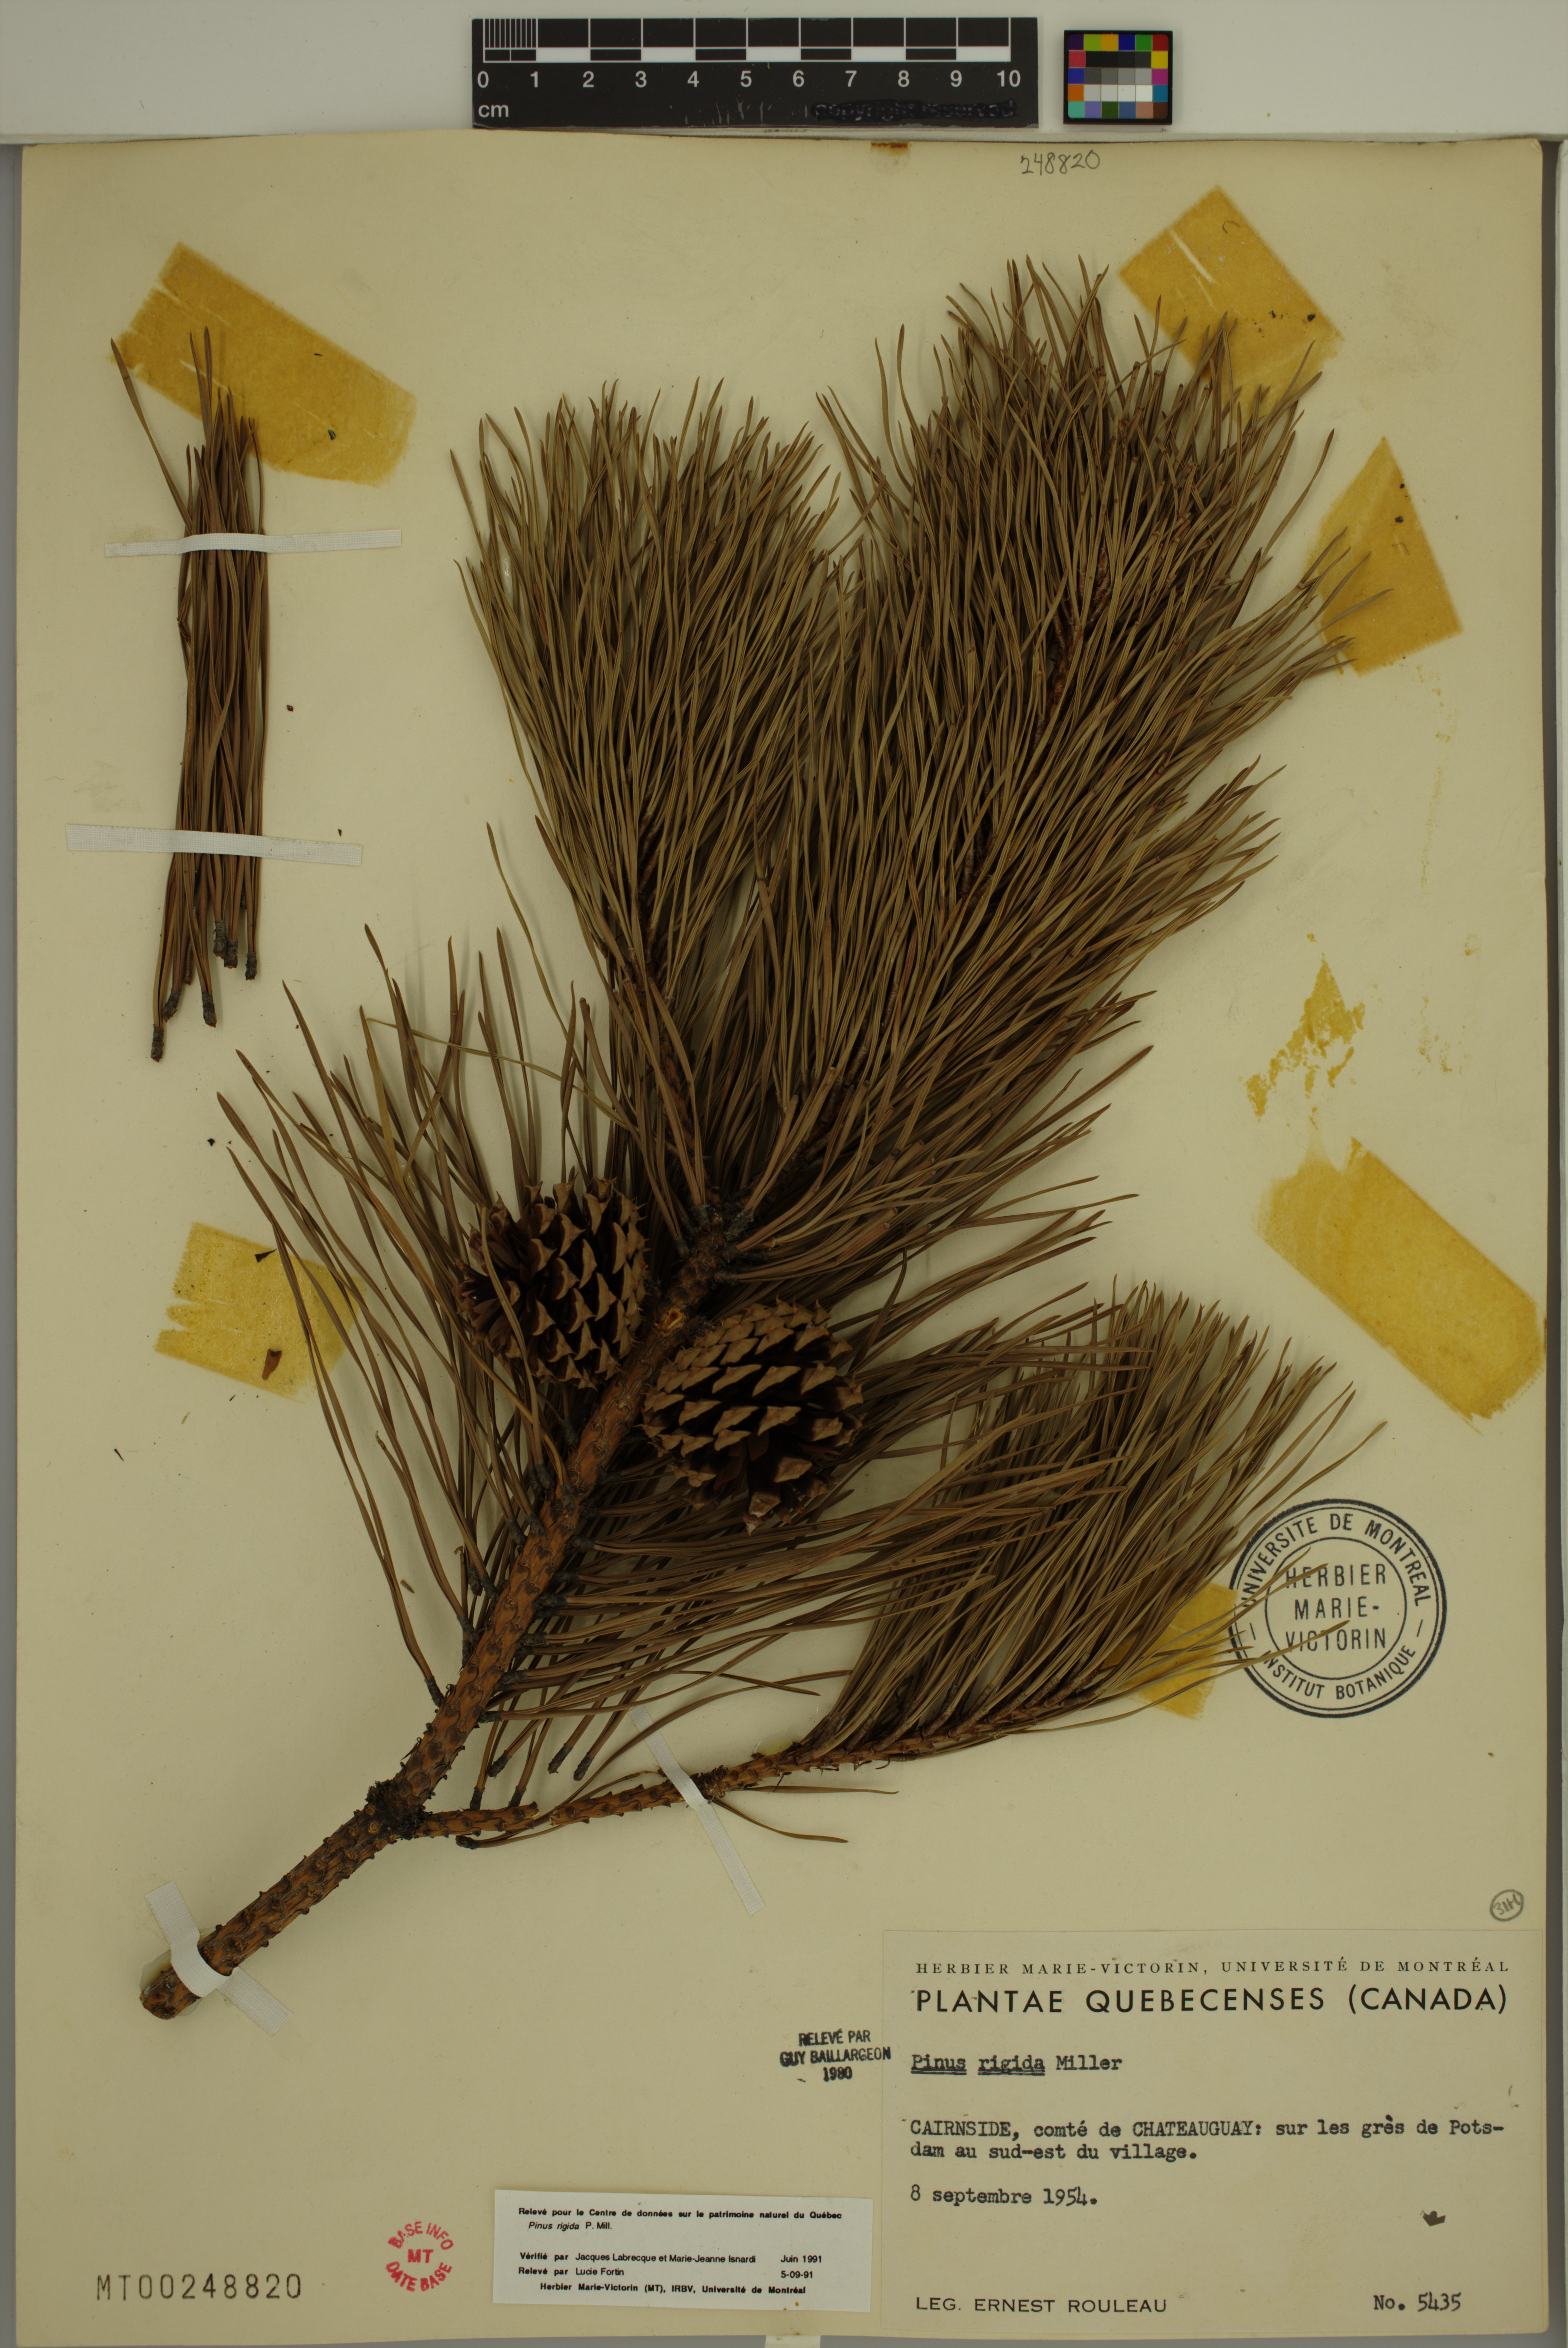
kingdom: Plantae
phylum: Tracheophyta
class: Pinopsida
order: Pinales
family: Pinaceae
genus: Pinus
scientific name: Pinus rigida
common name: Pitch pine
